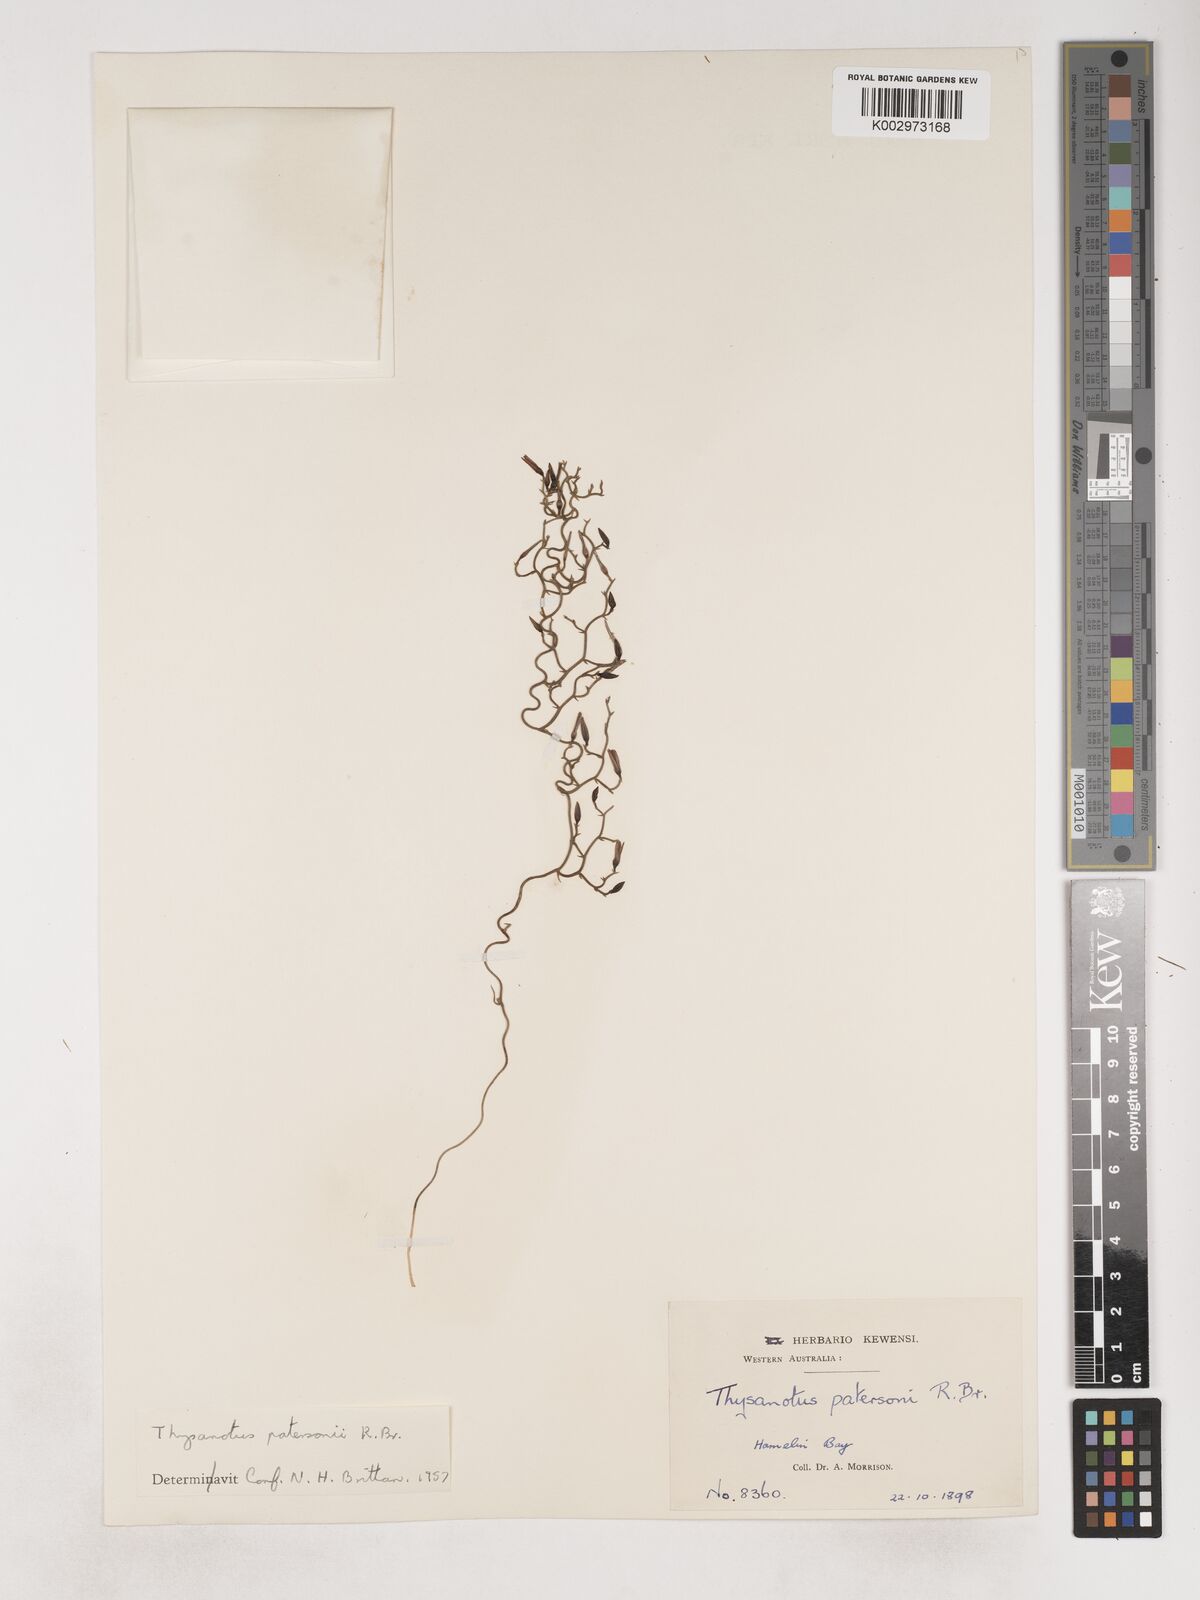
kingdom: Plantae
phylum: Tracheophyta
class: Liliopsida
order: Asparagales
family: Asparagaceae
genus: Thysanotus
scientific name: Thysanotus patersonii
